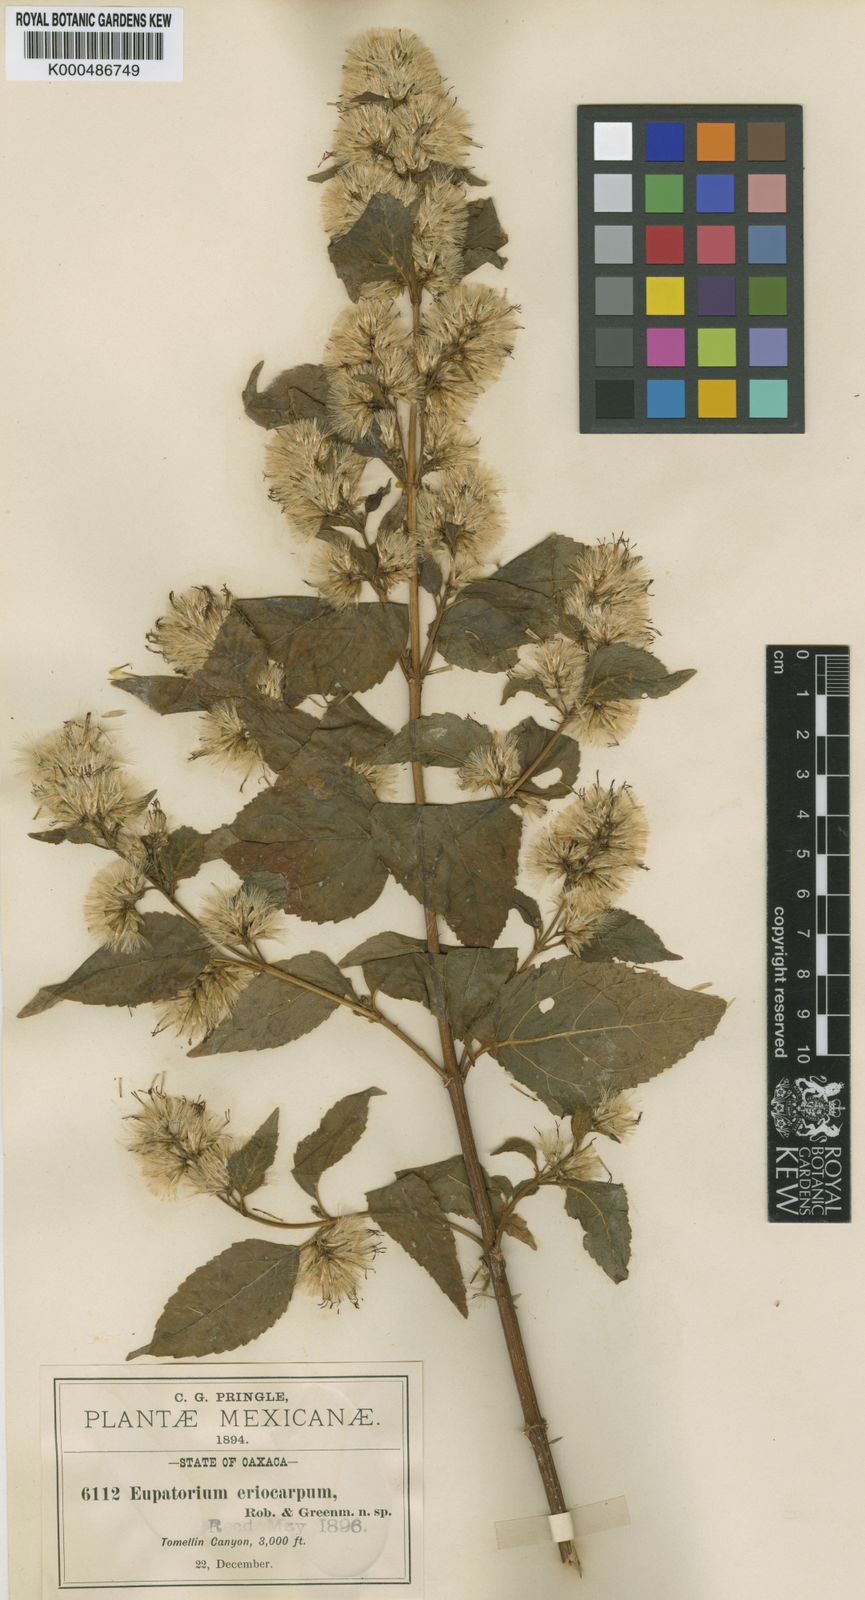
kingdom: Plantae
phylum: Tracheophyta
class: Magnoliopsida
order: Asterales
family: Asteraceae
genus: Kyrsteniopsis
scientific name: Kyrsteniopsis dibolii
